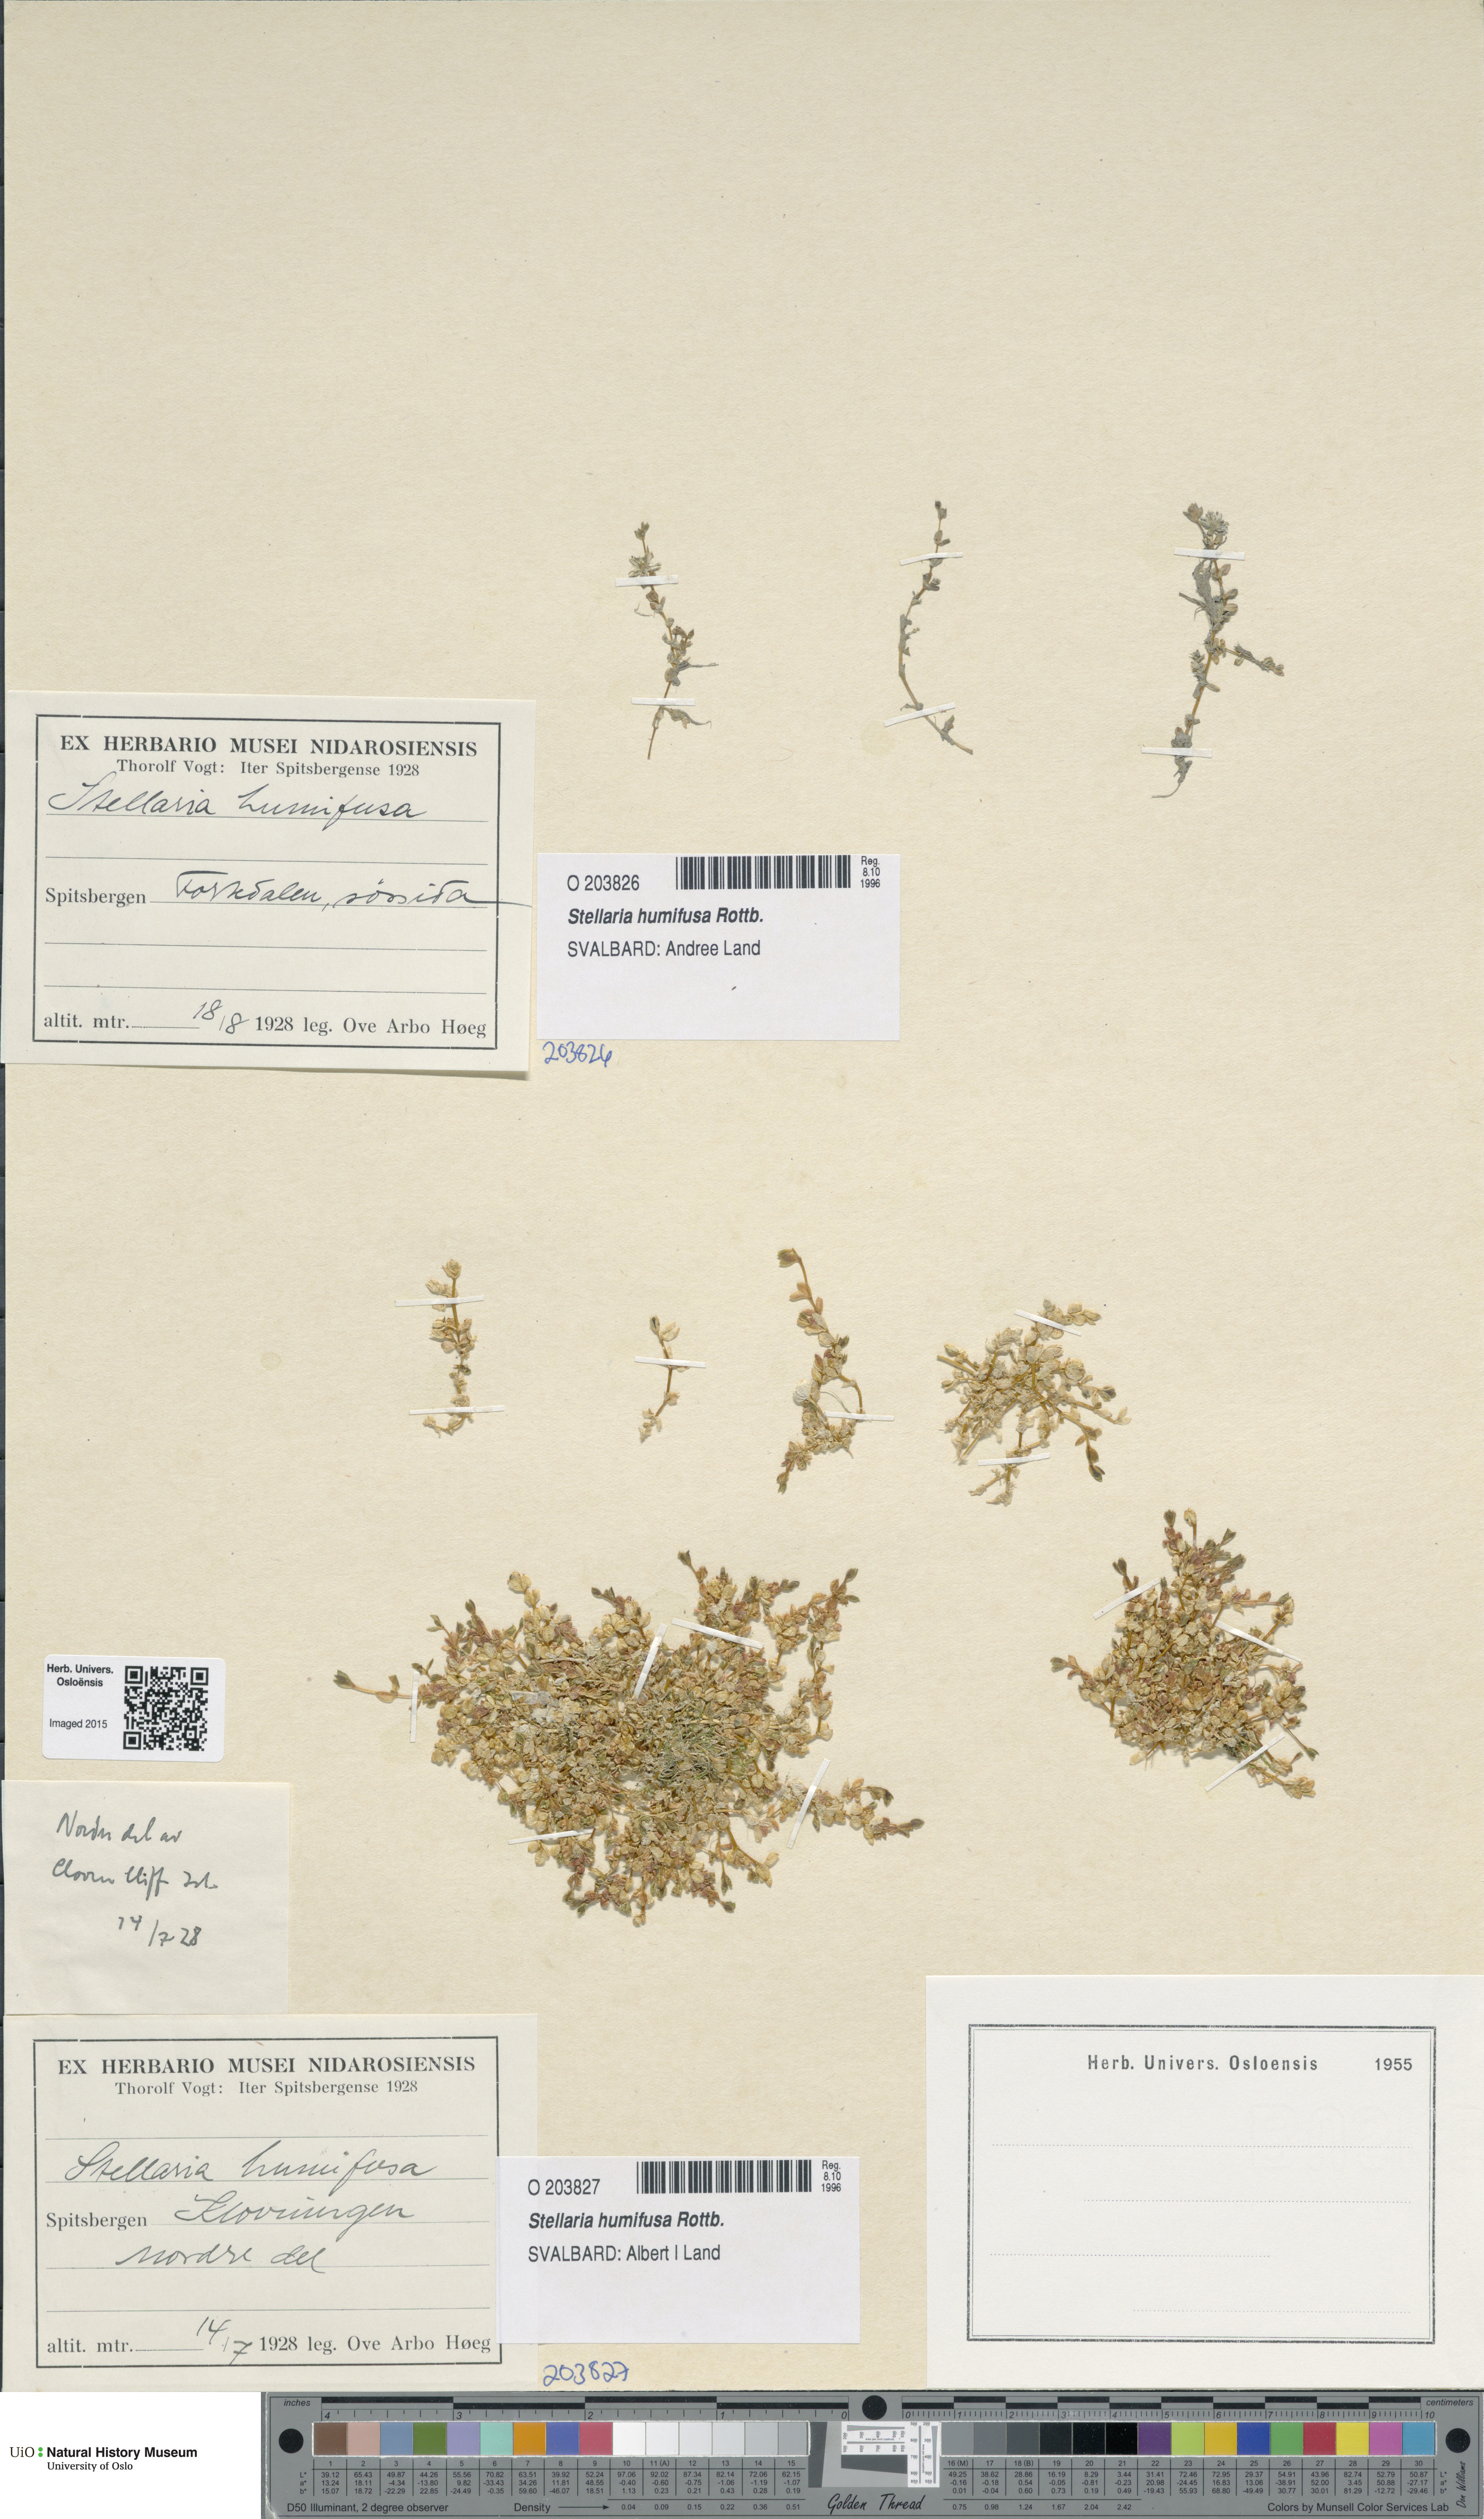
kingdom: Plantae
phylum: Tracheophyta
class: Magnoliopsida
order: Caryophyllales
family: Caryophyllaceae
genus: Stellaria
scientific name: Stellaria humifusa
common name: Creeping starwort
